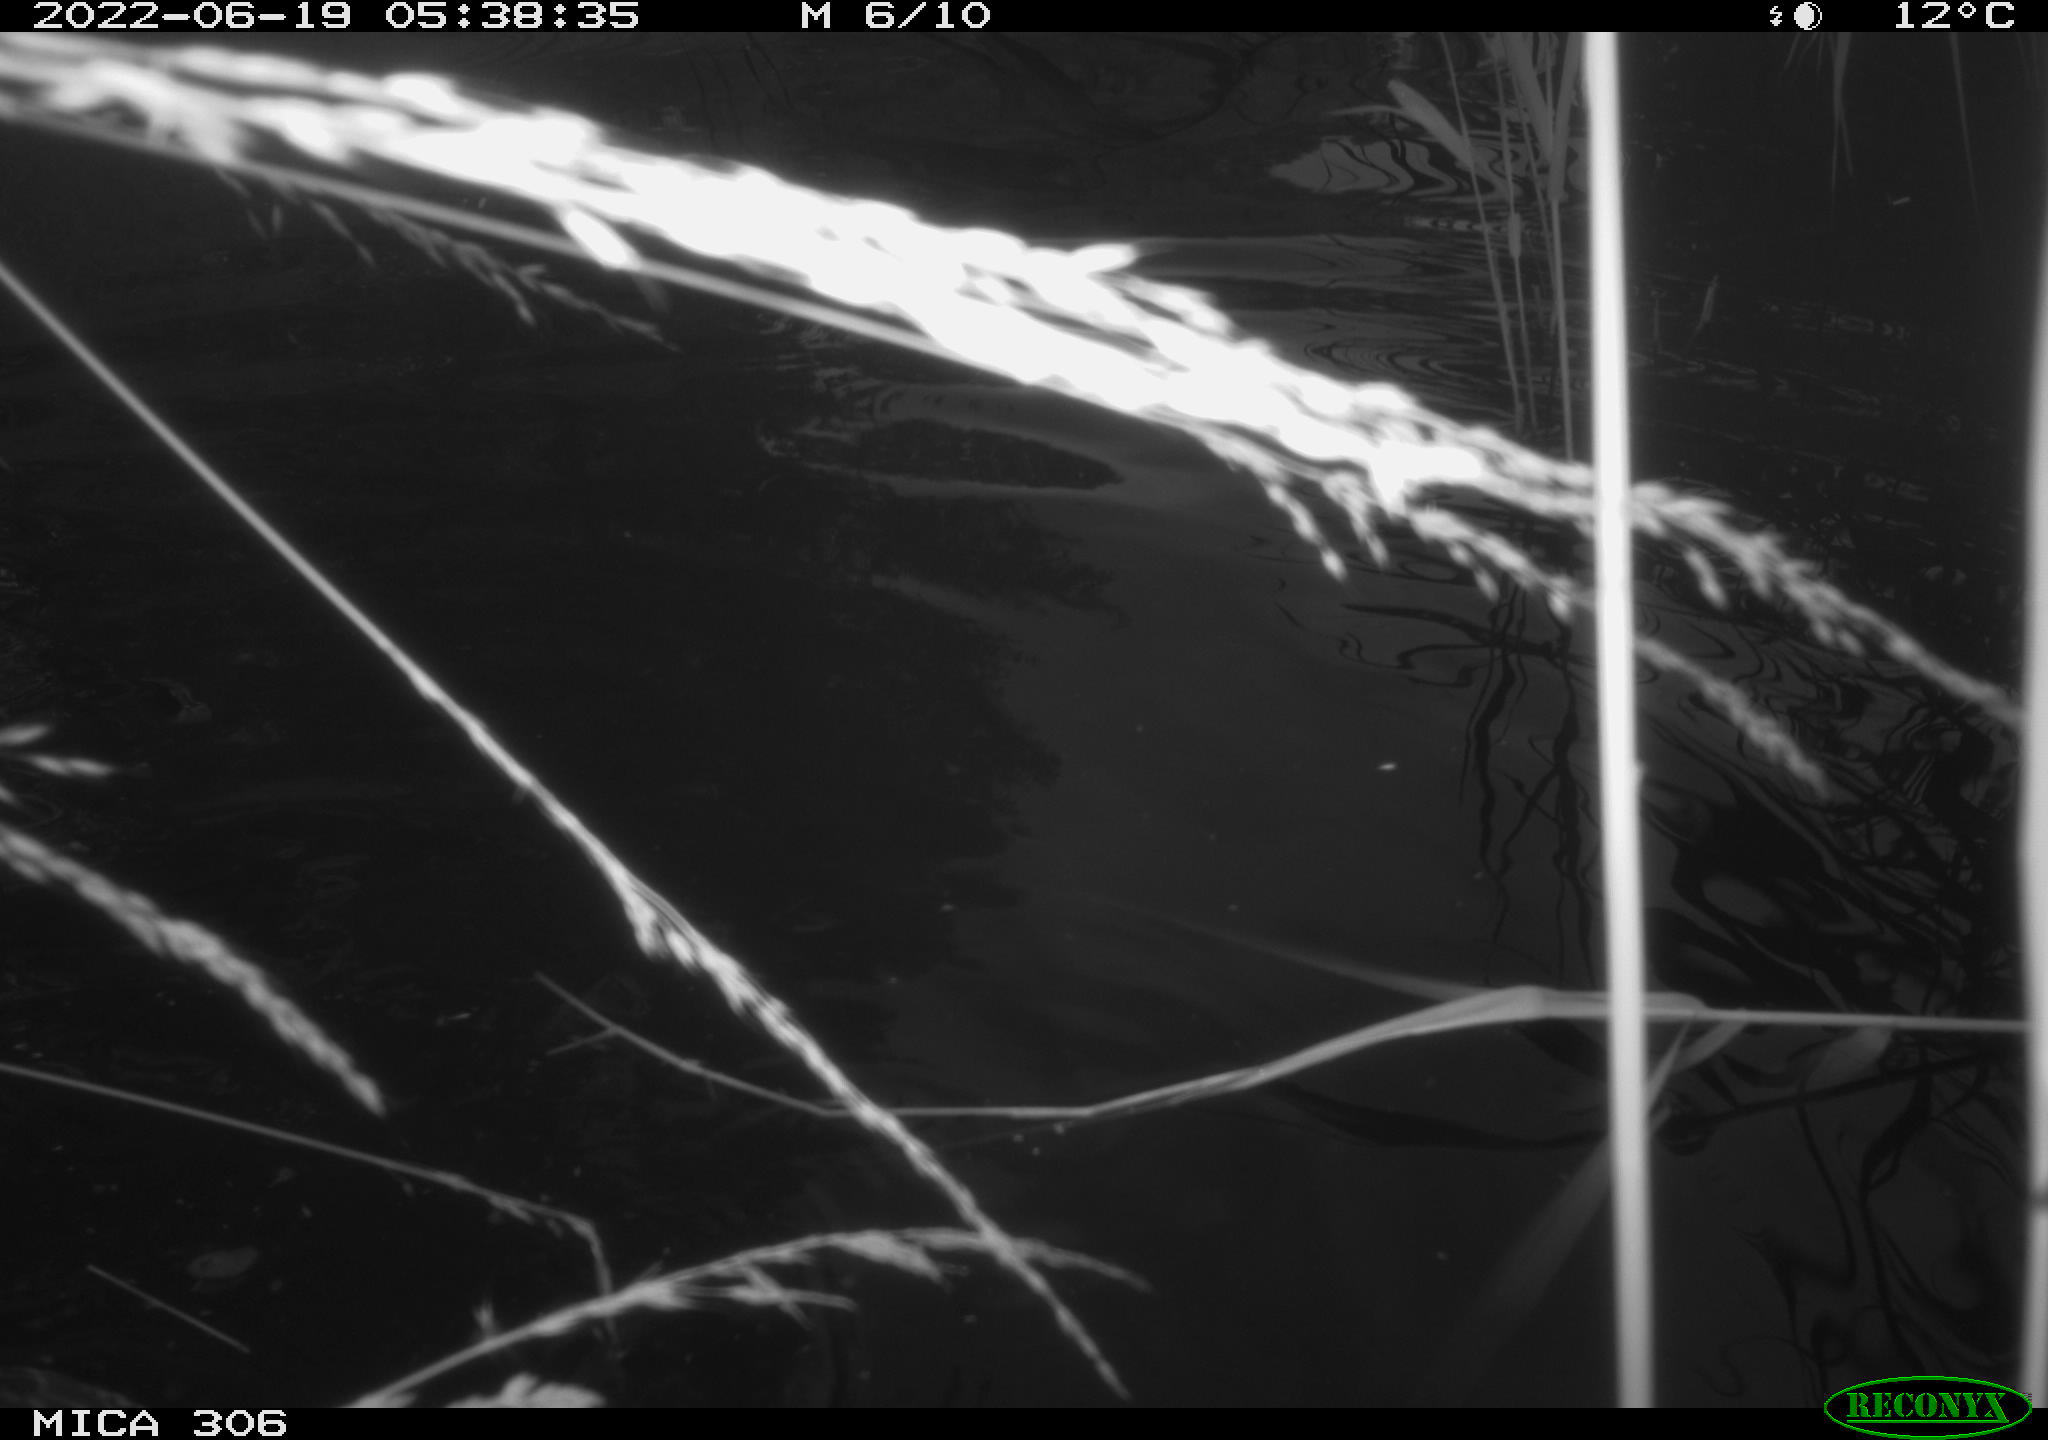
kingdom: Animalia
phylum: Chordata
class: Aves
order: Anseriformes
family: Anatidae
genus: Anas
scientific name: Anas platyrhynchos
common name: Mallard
